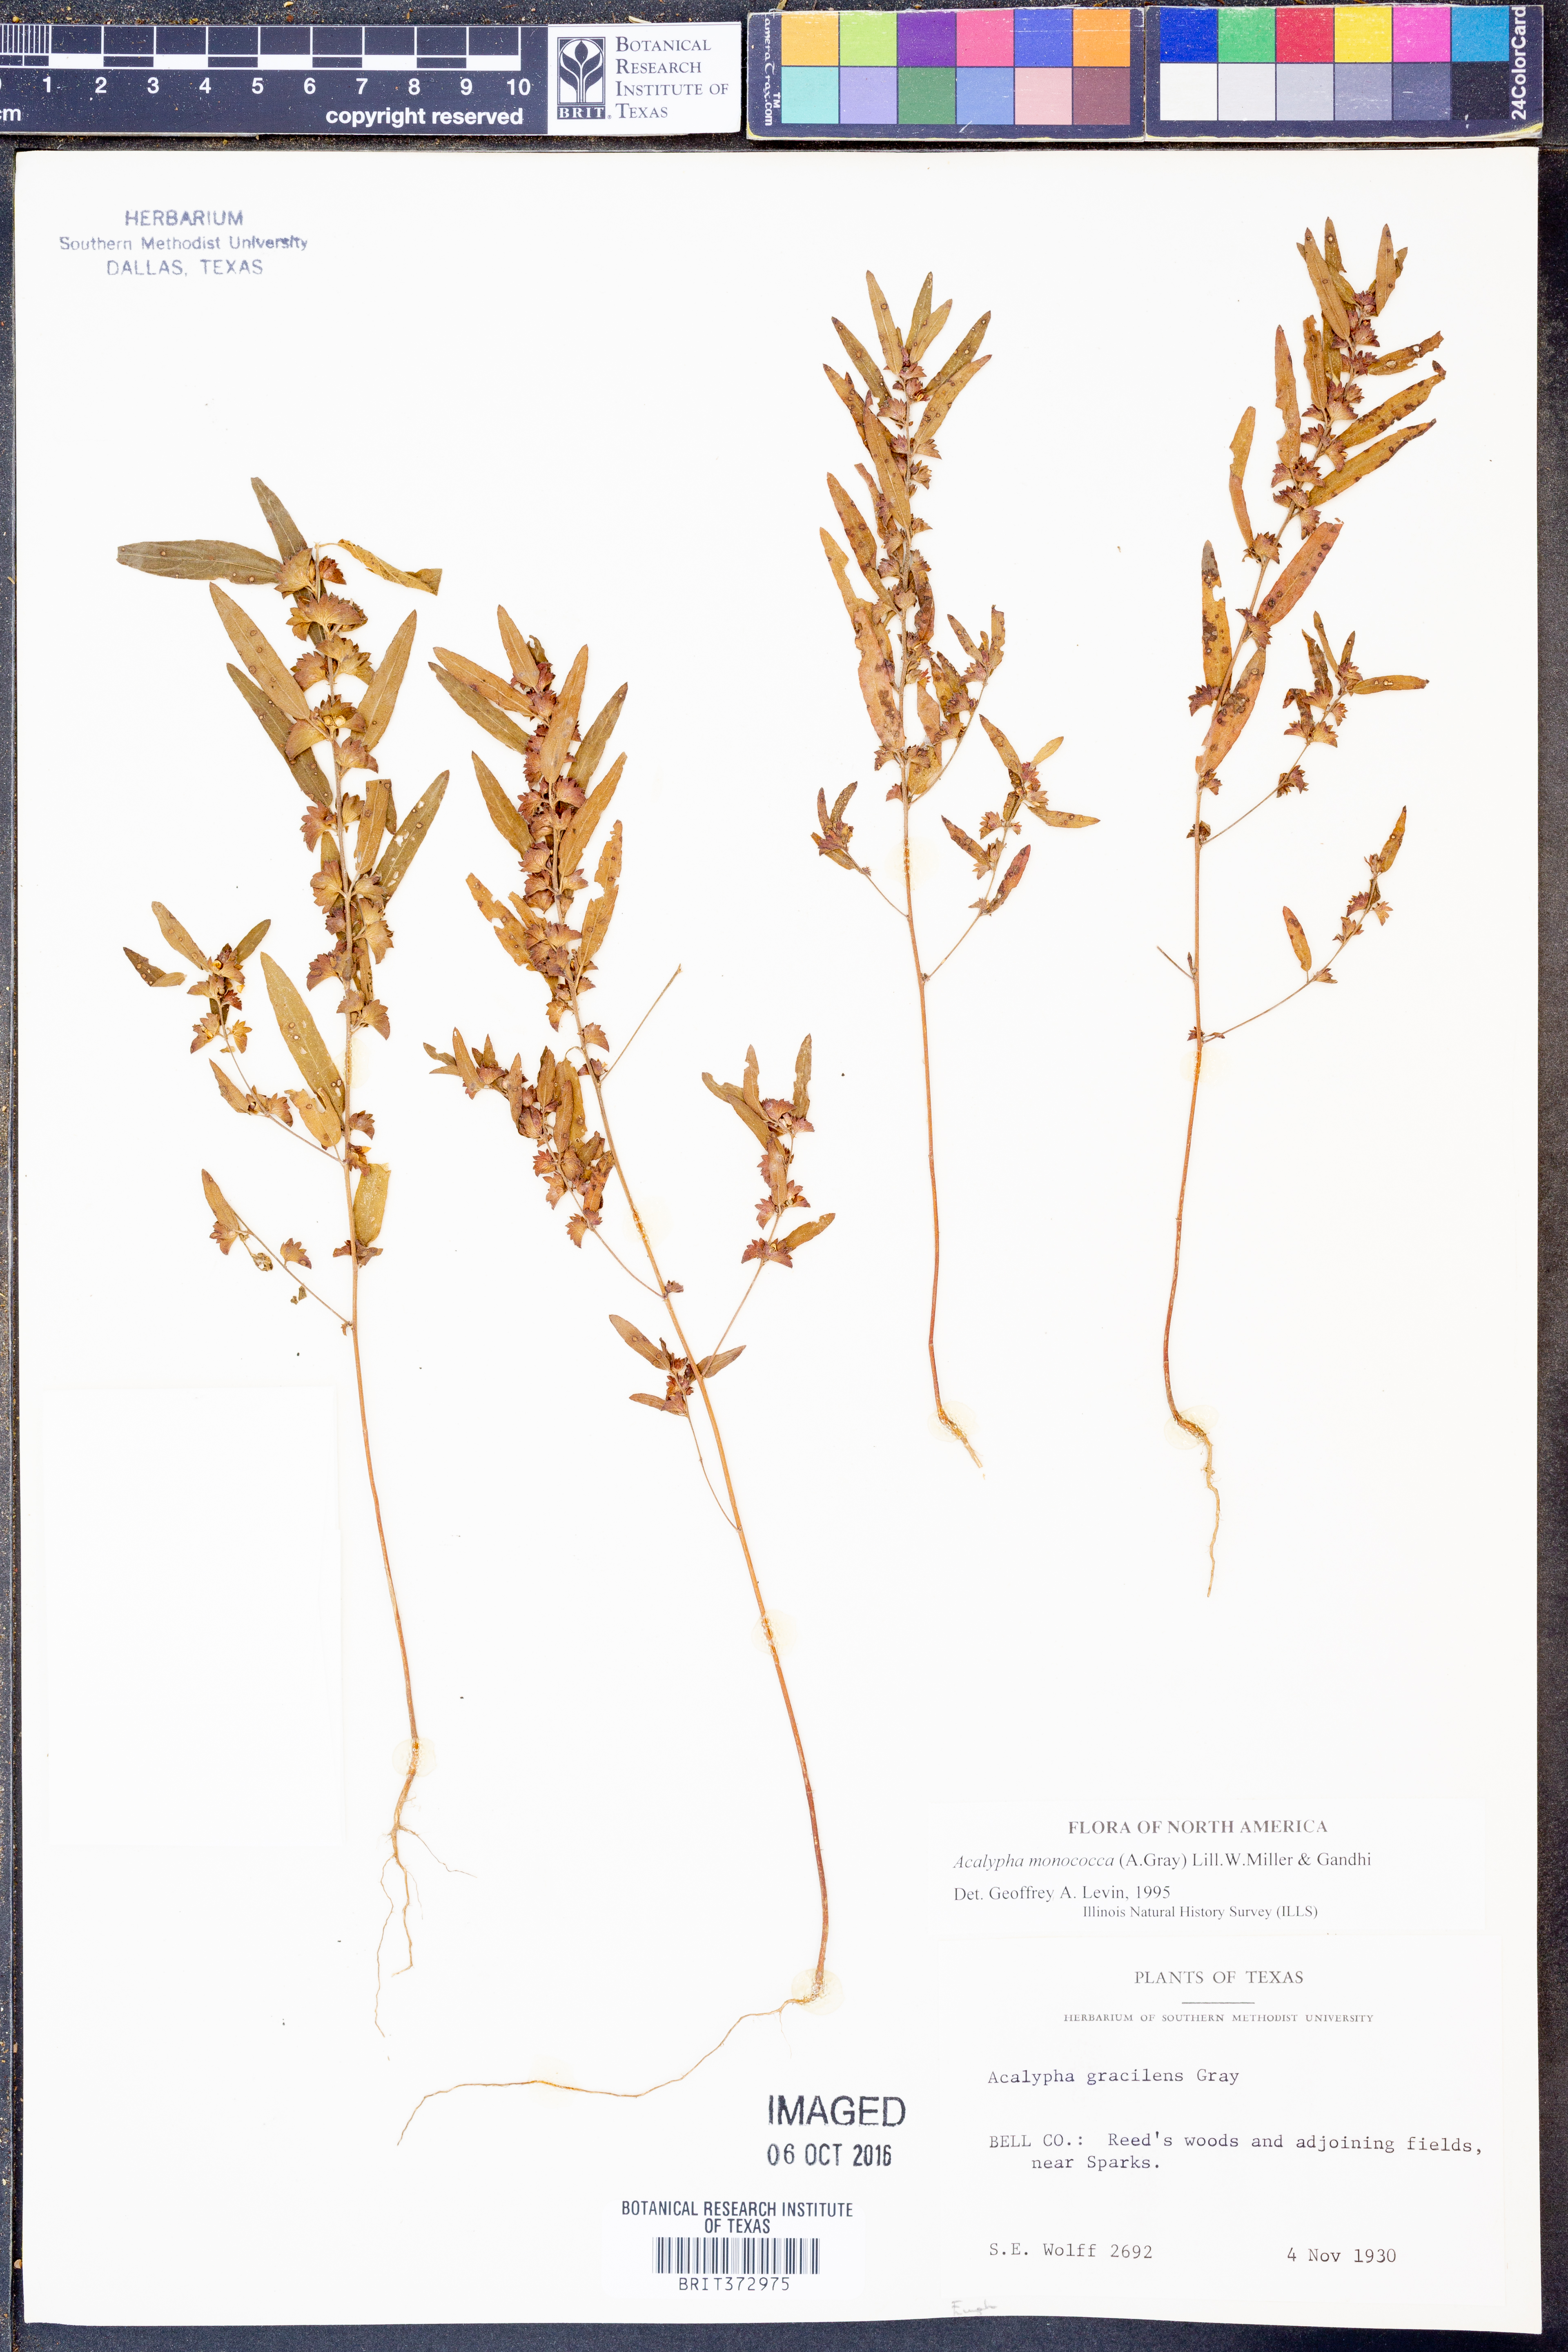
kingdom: Plantae
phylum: Tracheophyta
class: Magnoliopsida
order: Malpighiales
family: Euphorbiaceae
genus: Acalypha
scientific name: Acalypha monococca
